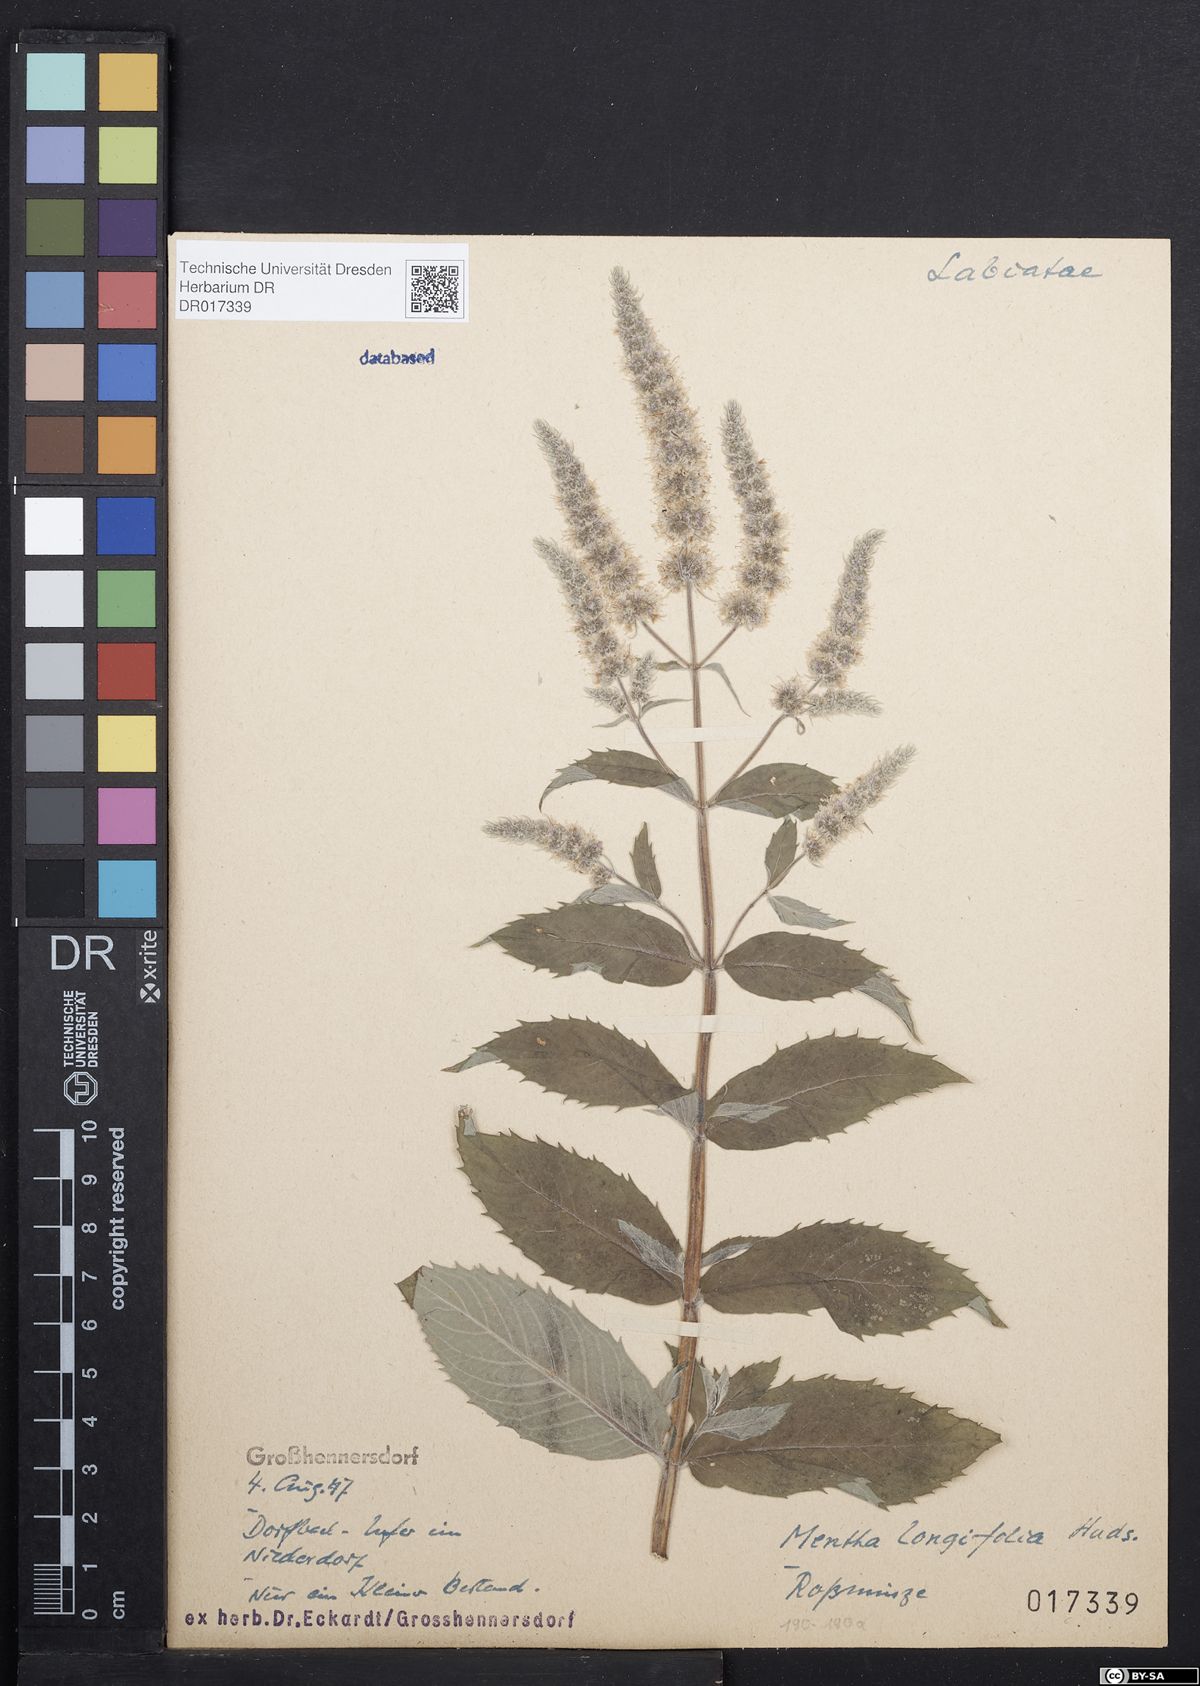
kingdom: Plantae
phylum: Tracheophyta
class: Magnoliopsida
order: Lamiales
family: Lamiaceae
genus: Mentha
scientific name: Mentha longifolia
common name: Horse mint
